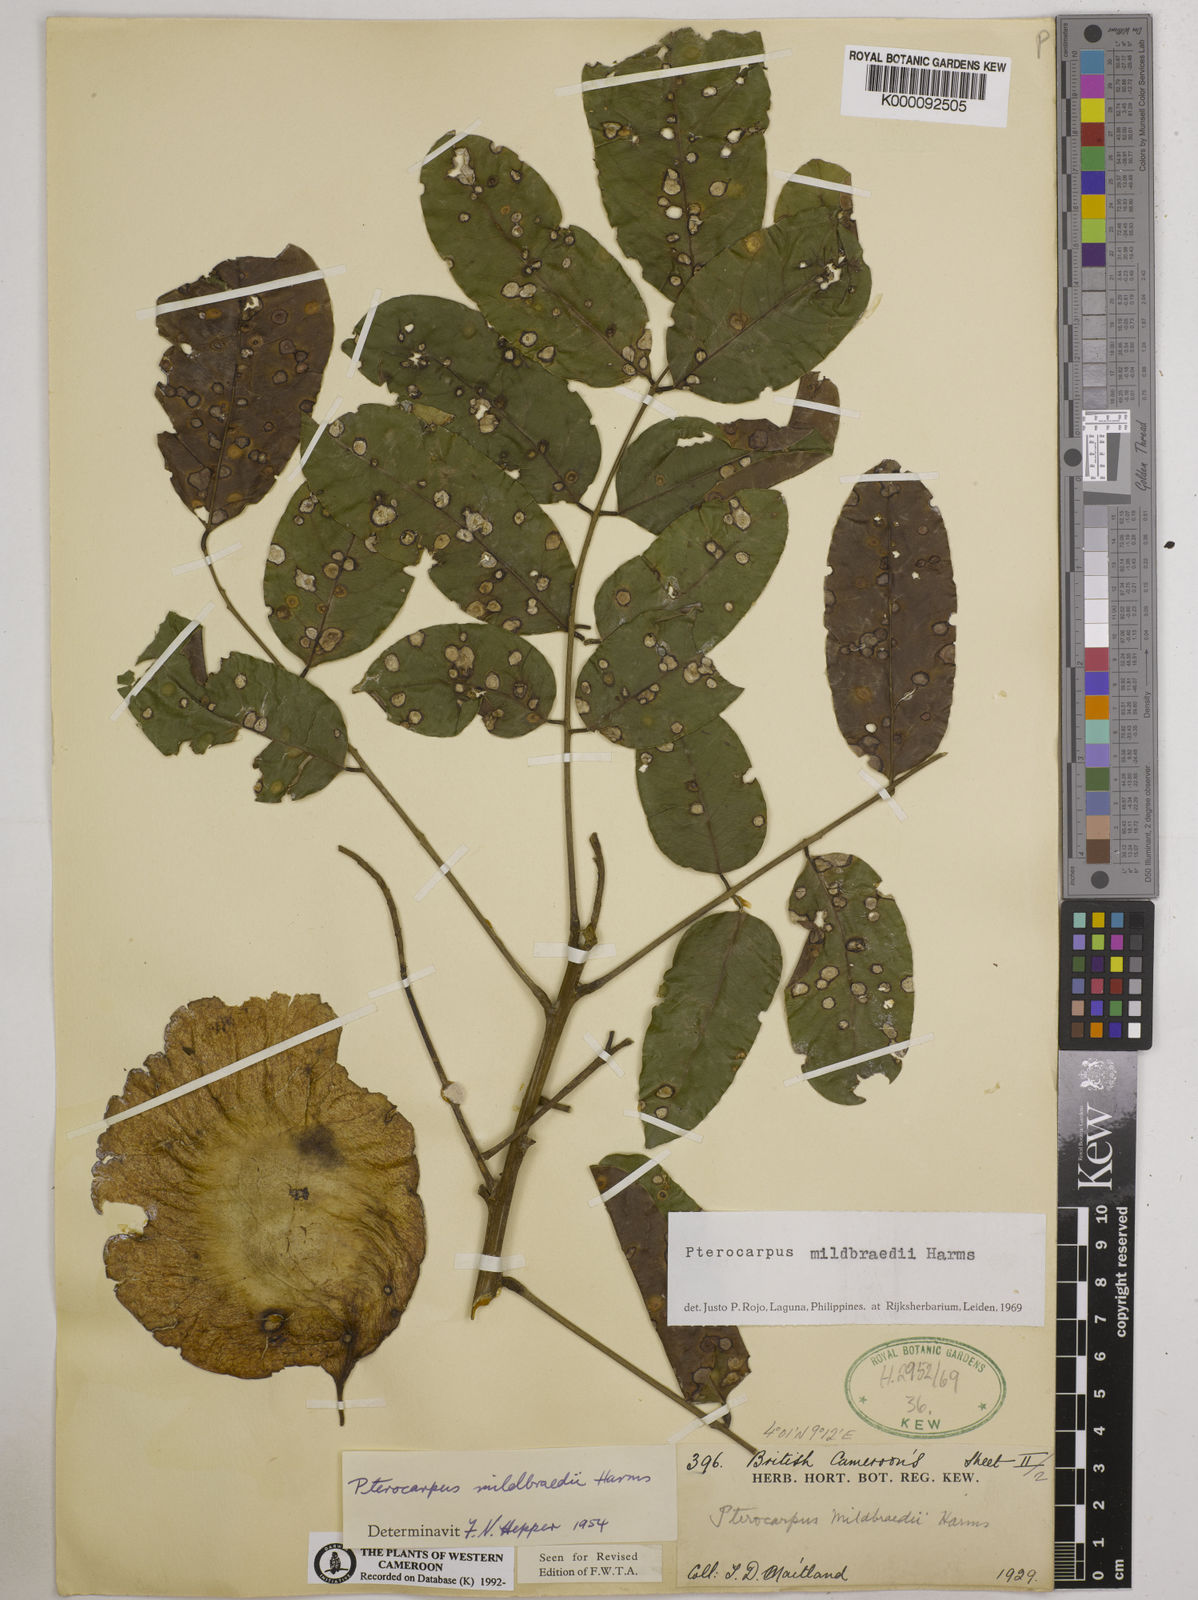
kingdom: Plantae
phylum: Tracheophyta
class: Magnoliopsida
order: Solanales
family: Convolvulaceae
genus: Lepistemon
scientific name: Lepistemon
